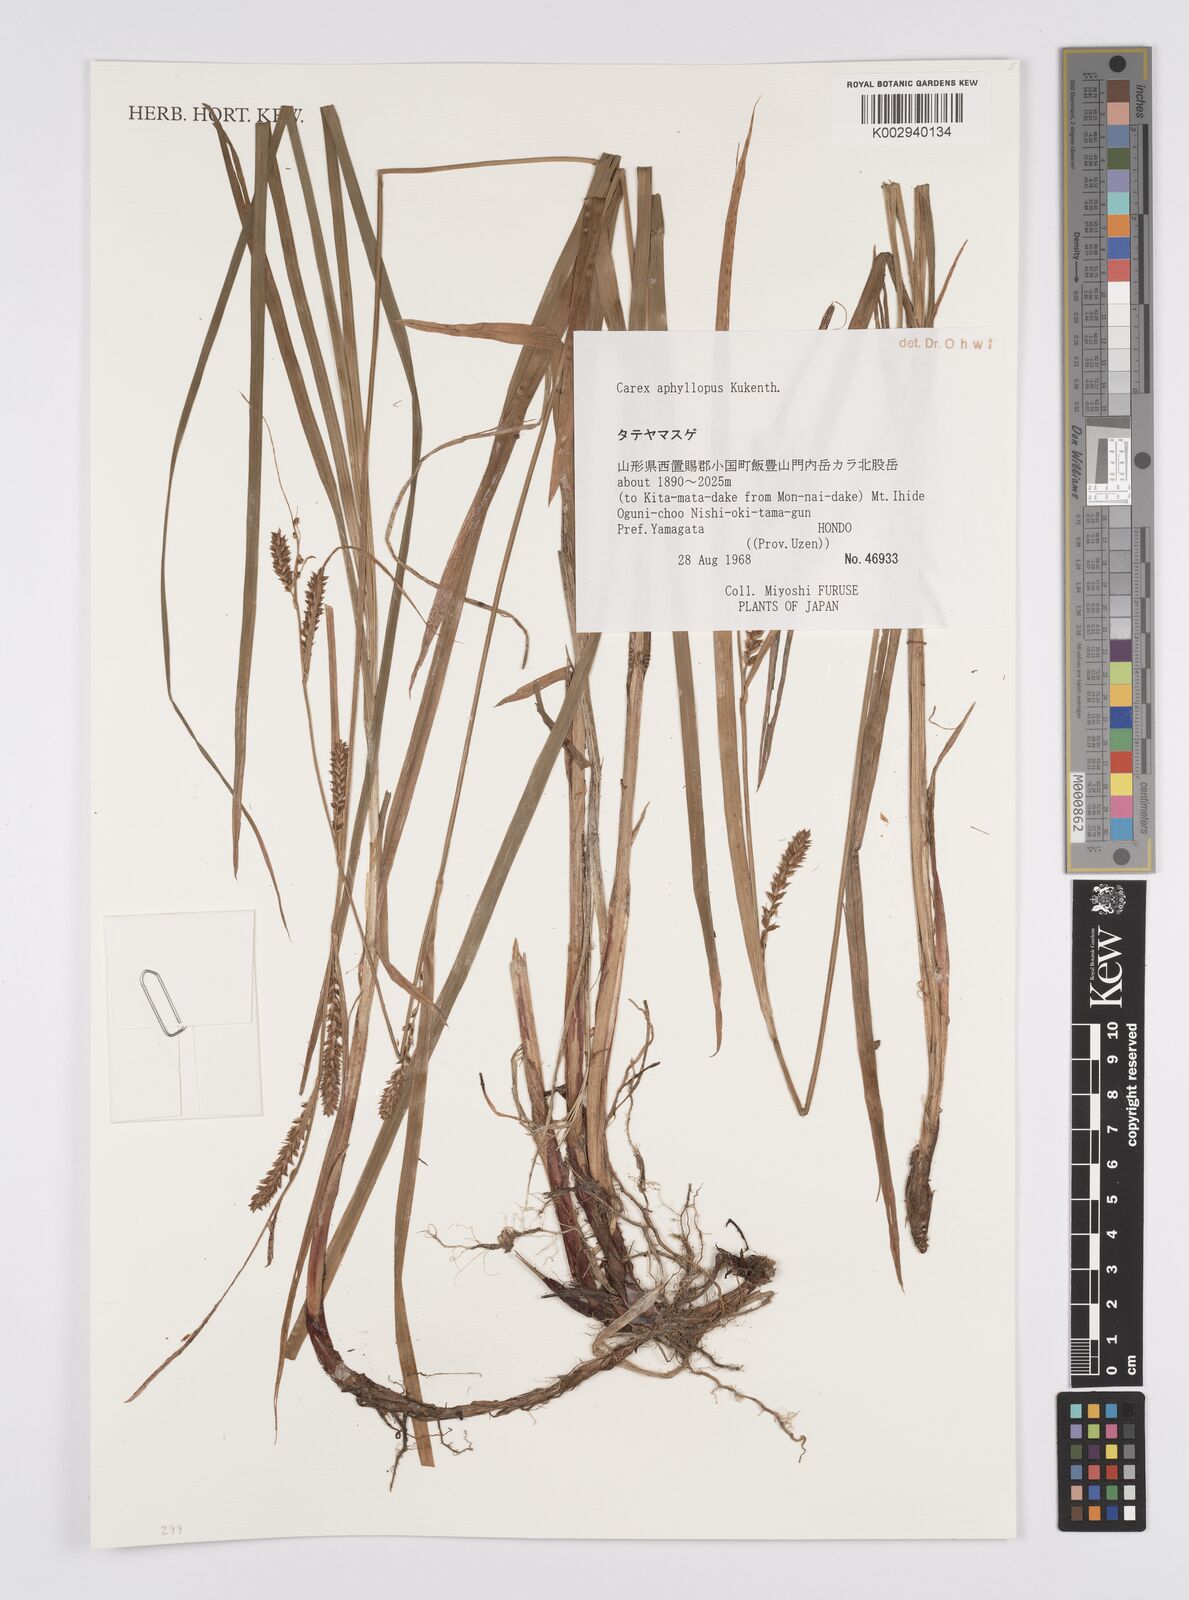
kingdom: Plantae
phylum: Tracheophyta
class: Liliopsida
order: Poales
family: Cyperaceae
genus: Carex
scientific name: Carex aphyllopus
